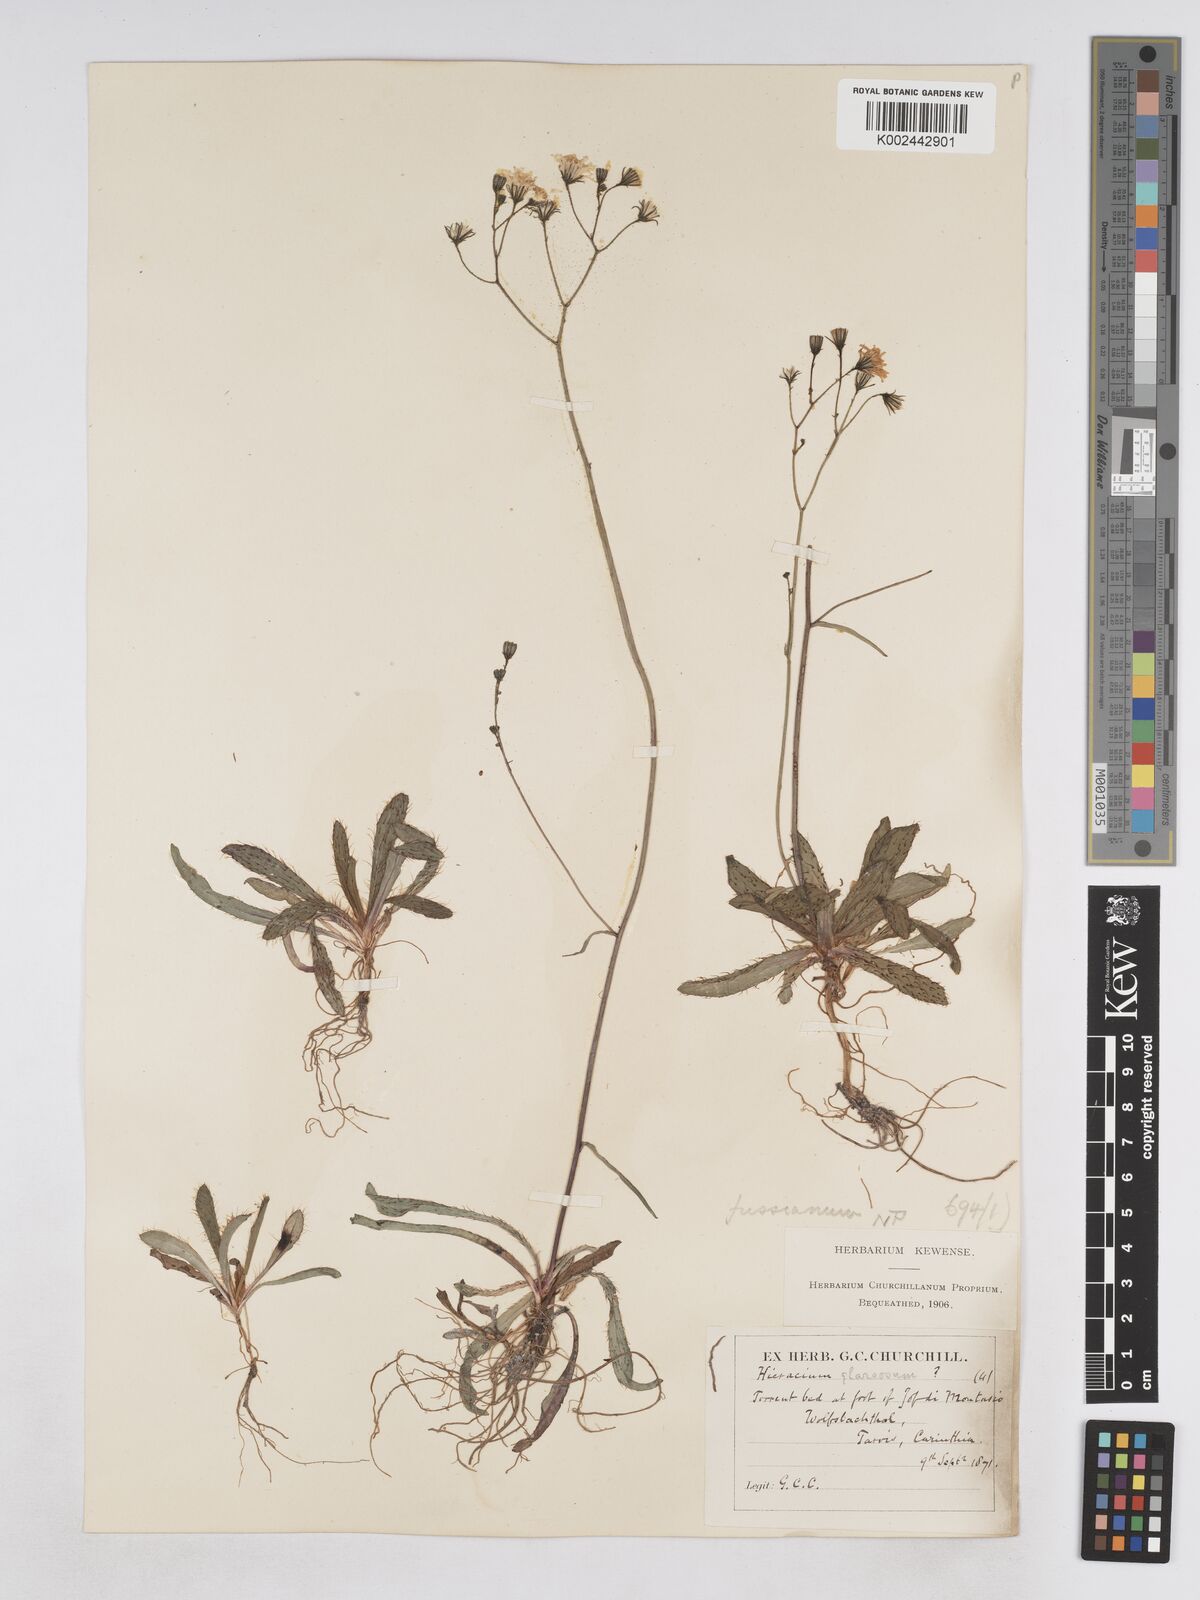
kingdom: Plantae
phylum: Tracheophyta
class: Magnoliopsida
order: Asterales
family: Asteraceae
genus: Pilosella
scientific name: Pilosella pavichii
